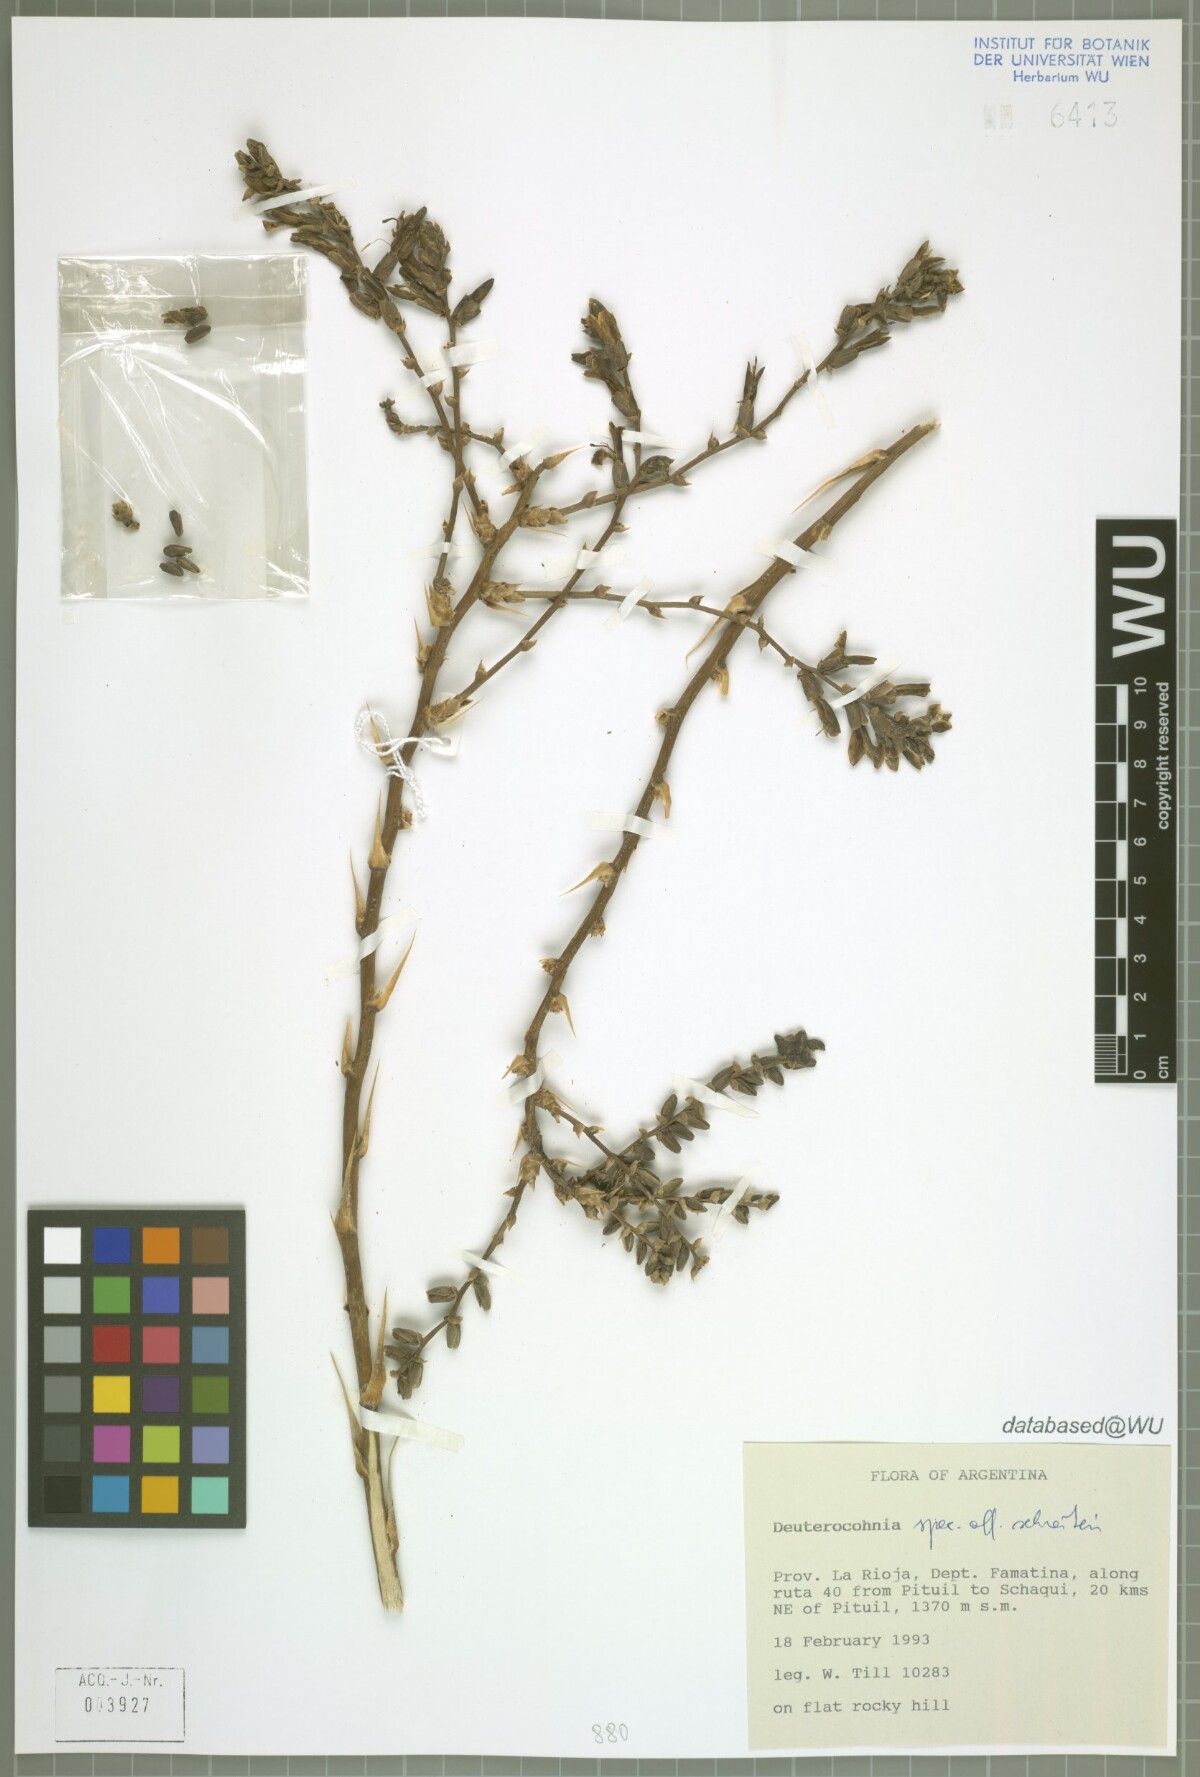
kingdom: Plantae
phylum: Tracheophyta
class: Liliopsida
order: Poales
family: Bromeliaceae
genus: Deuterocohnia
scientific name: Deuterocohnia
